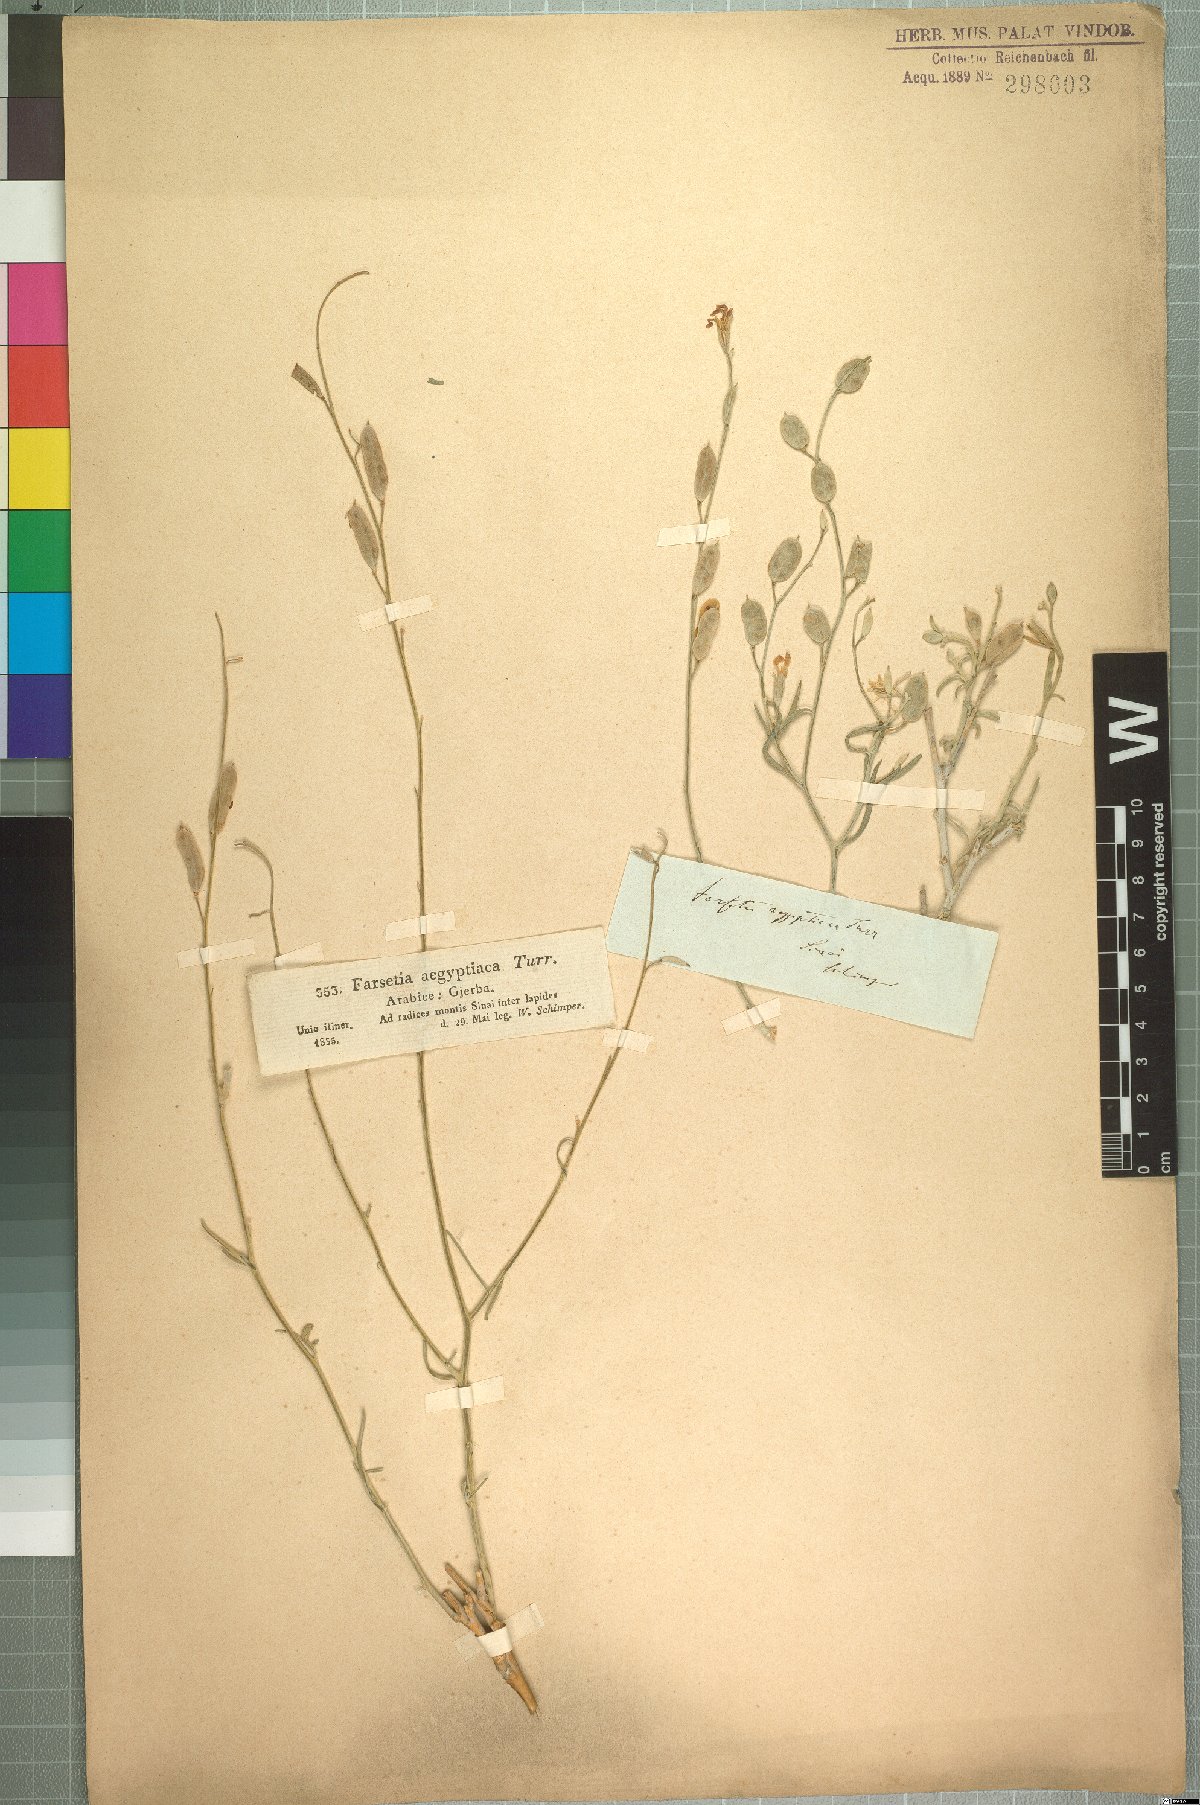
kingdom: Plantae
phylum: Tracheophyta
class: Magnoliopsida
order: Brassicales
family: Brassicaceae
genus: Farsetia
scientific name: Farsetia aegyptia
